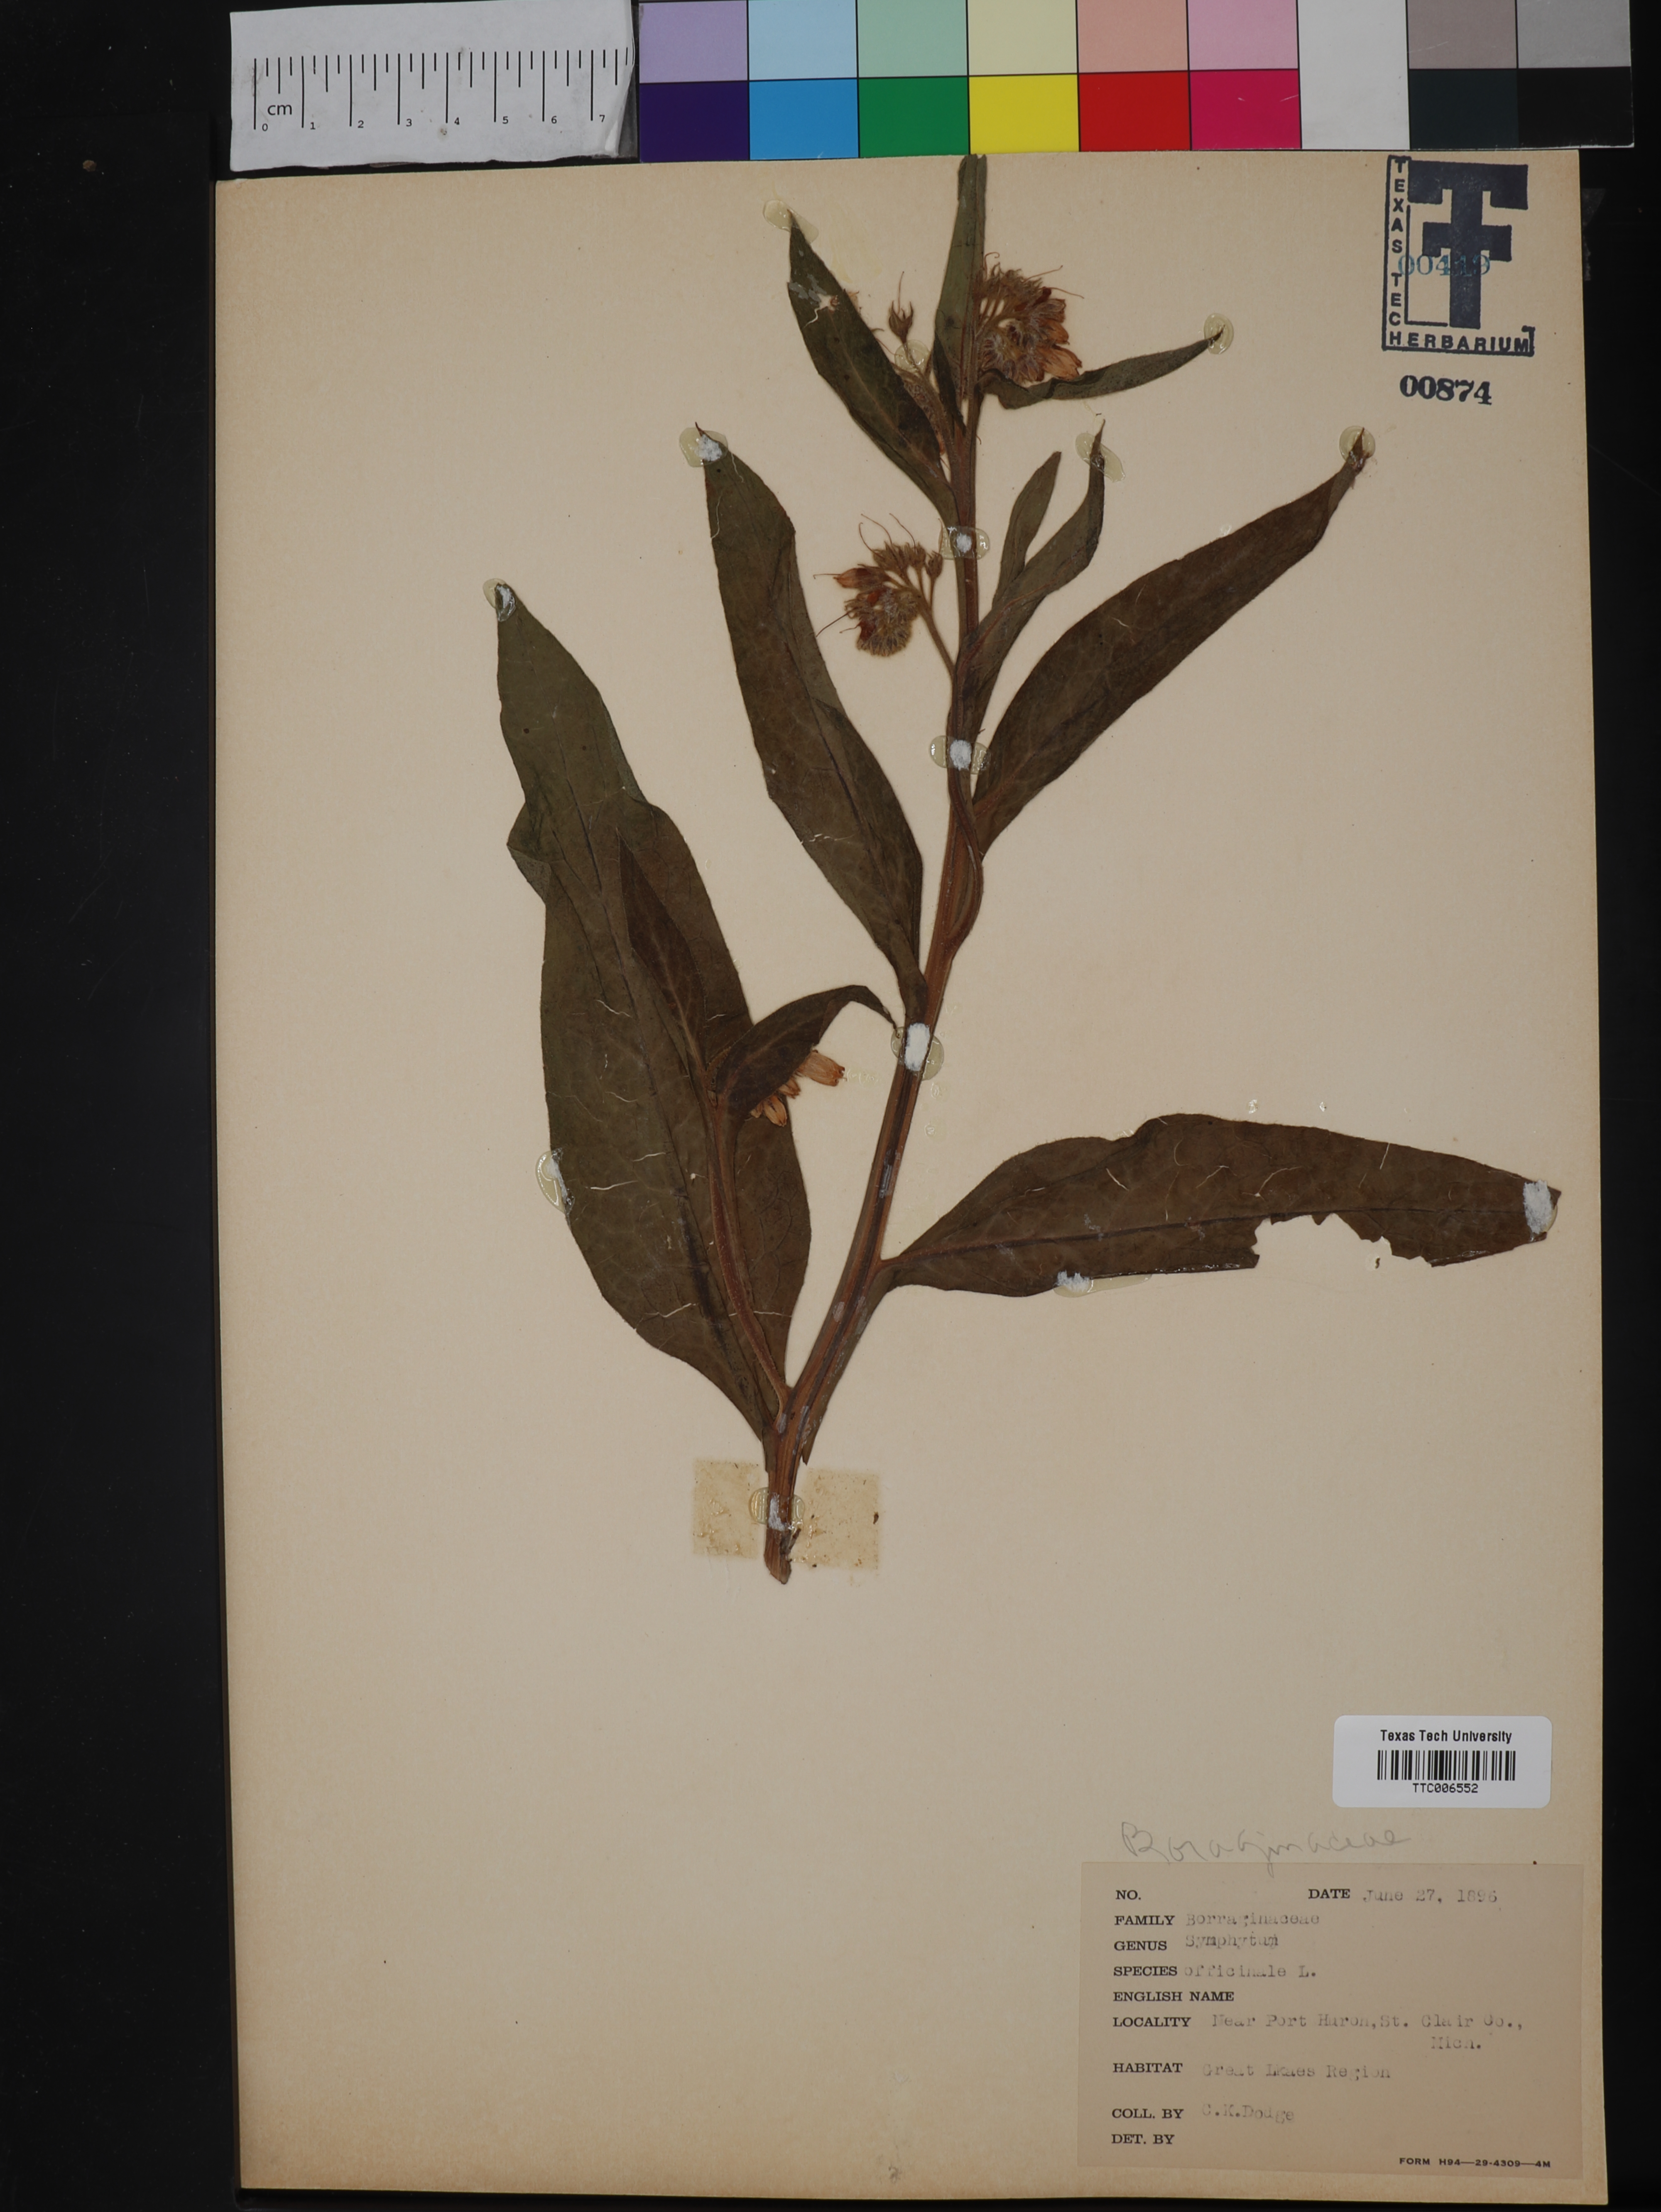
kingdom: Plantae
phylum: Tracheophyta
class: Magnoliopsida
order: Boraginales
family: Boraginaceae
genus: Symphytum
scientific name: Symphytum officinale
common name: Common comfrey
